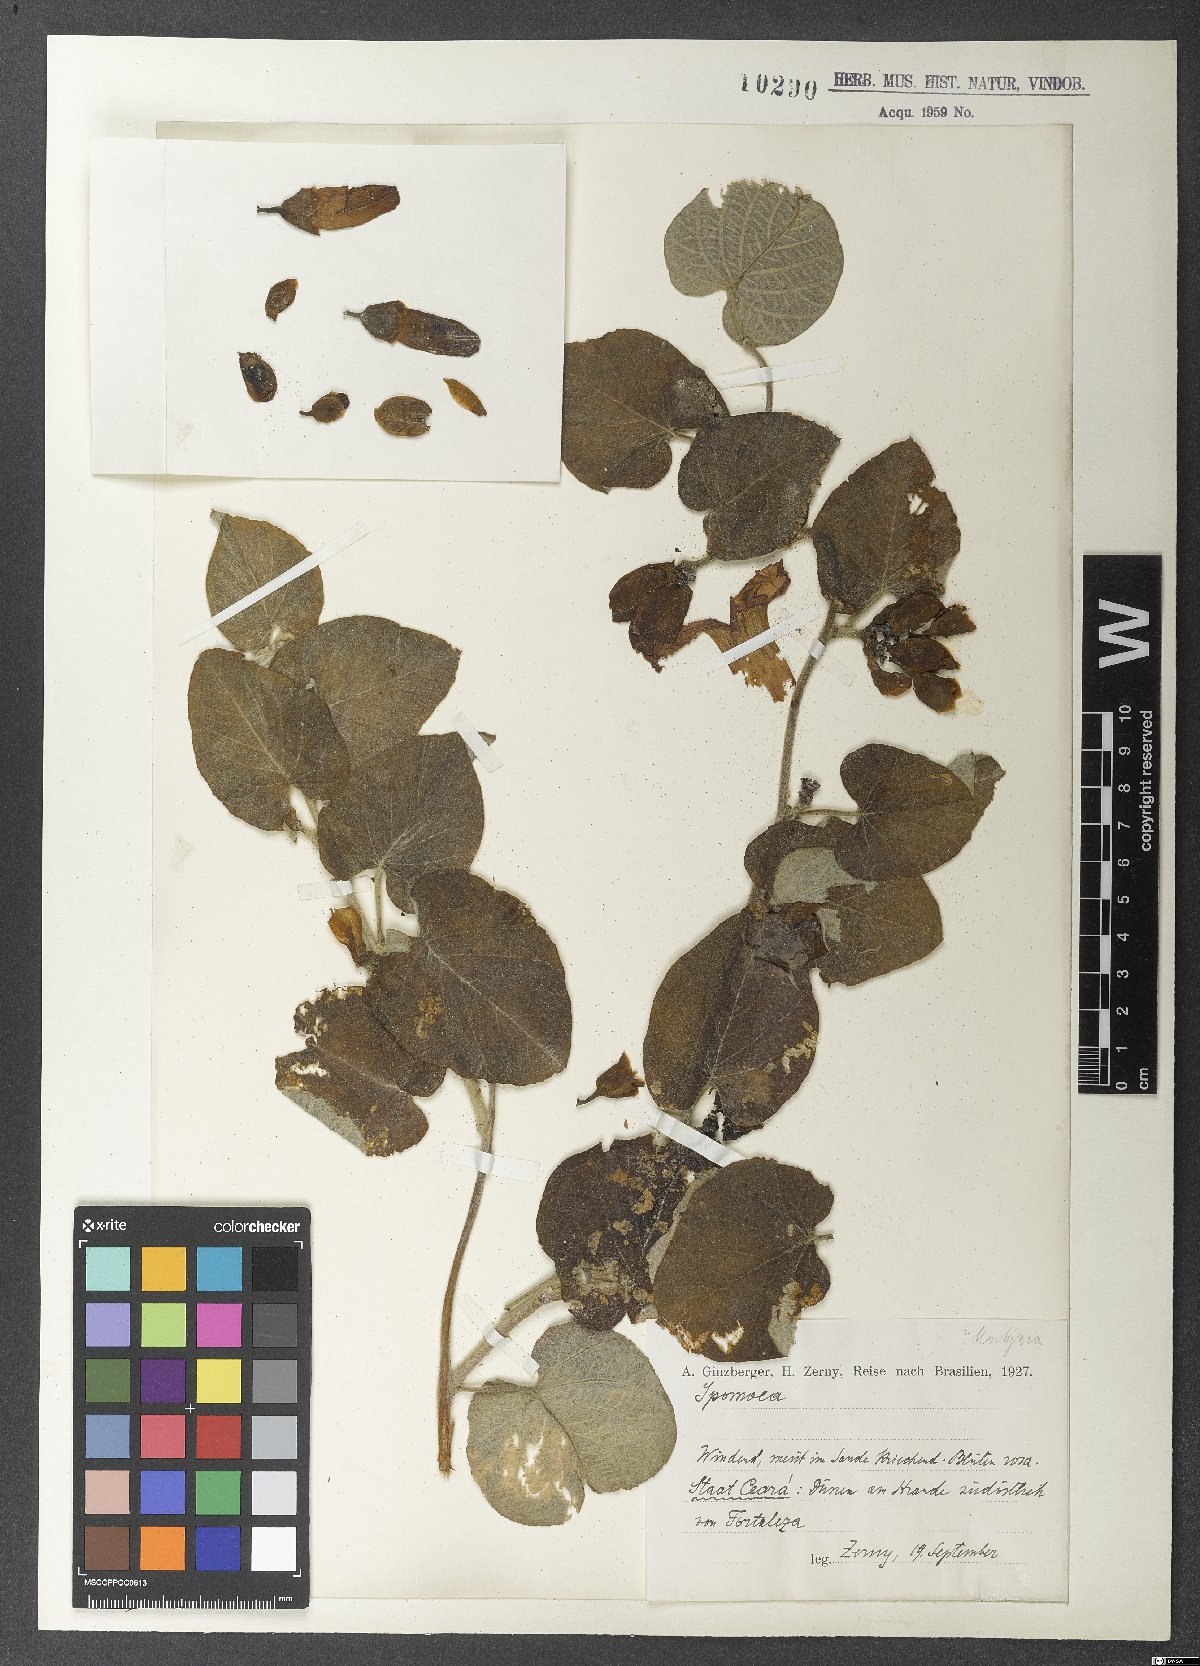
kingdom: Plantae
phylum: Tracheophyta
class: Magnoliopsida
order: Solanales
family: Convolvulaceae
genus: Ipomoea
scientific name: Ipomoea
